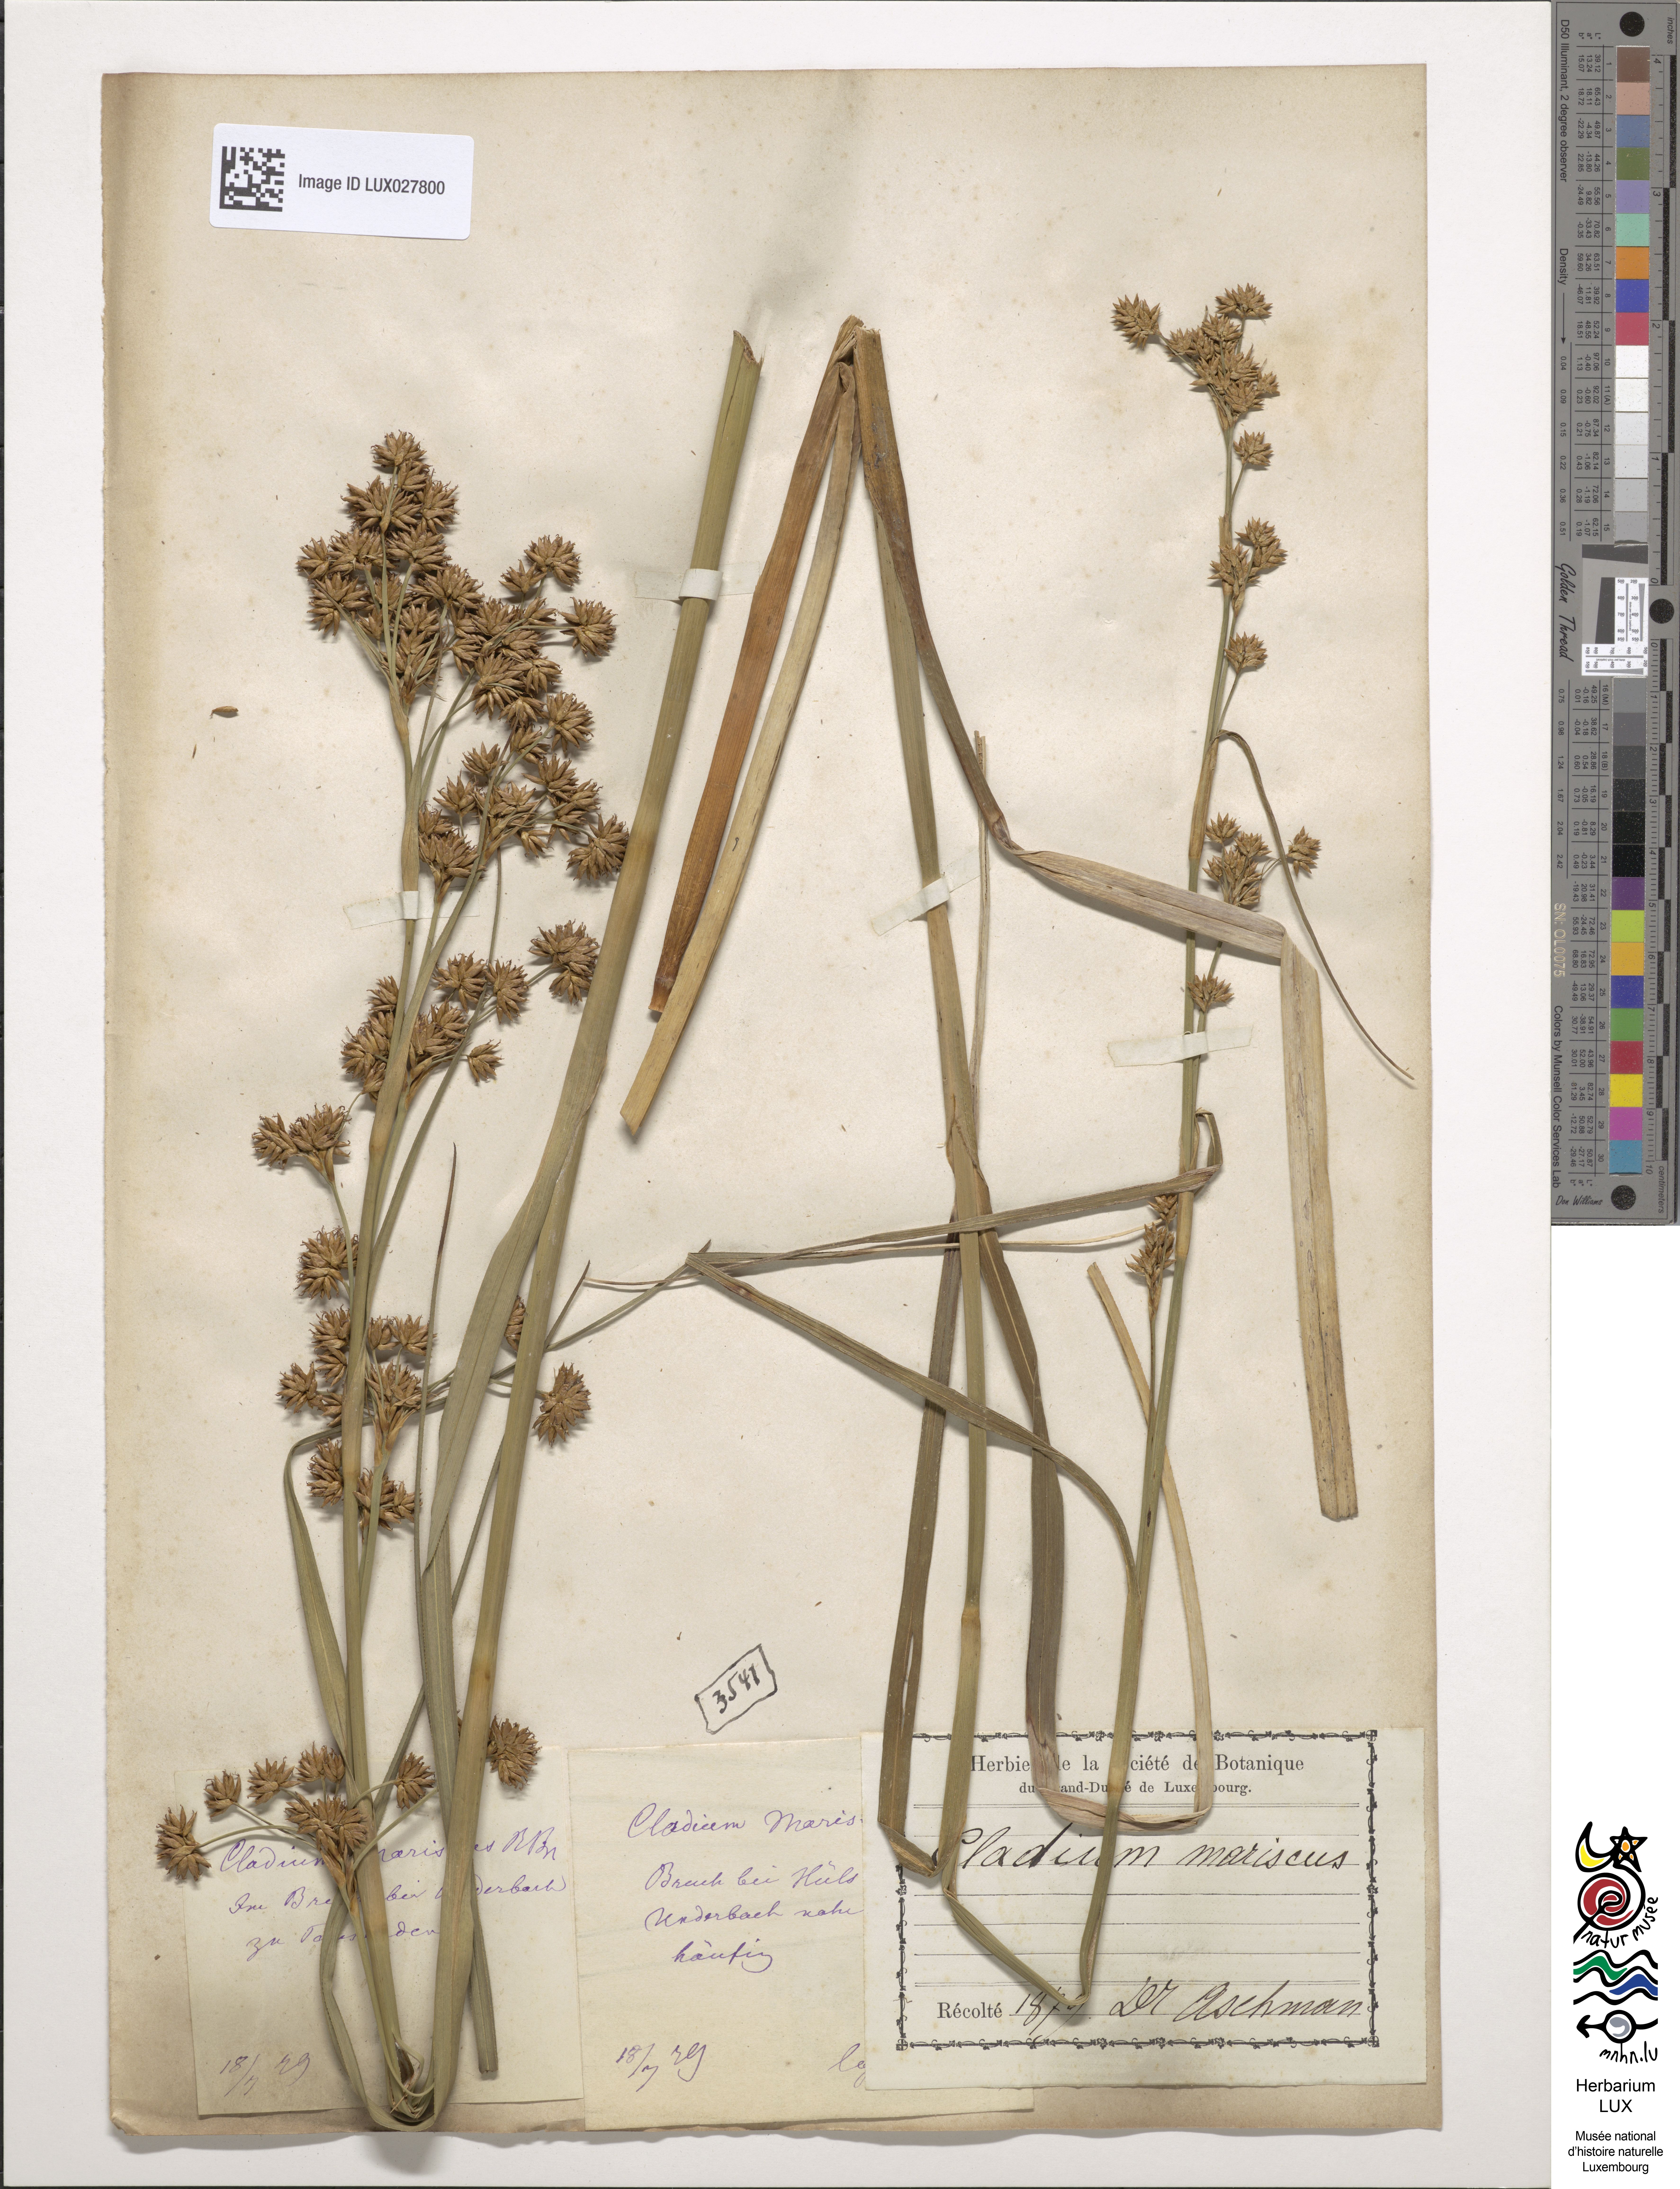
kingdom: Plantae
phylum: Tracheophyta
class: Liliopsida
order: Poales
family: Cyperaceae
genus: Cladium
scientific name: Cladium mariscus
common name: Great fen-sedge
